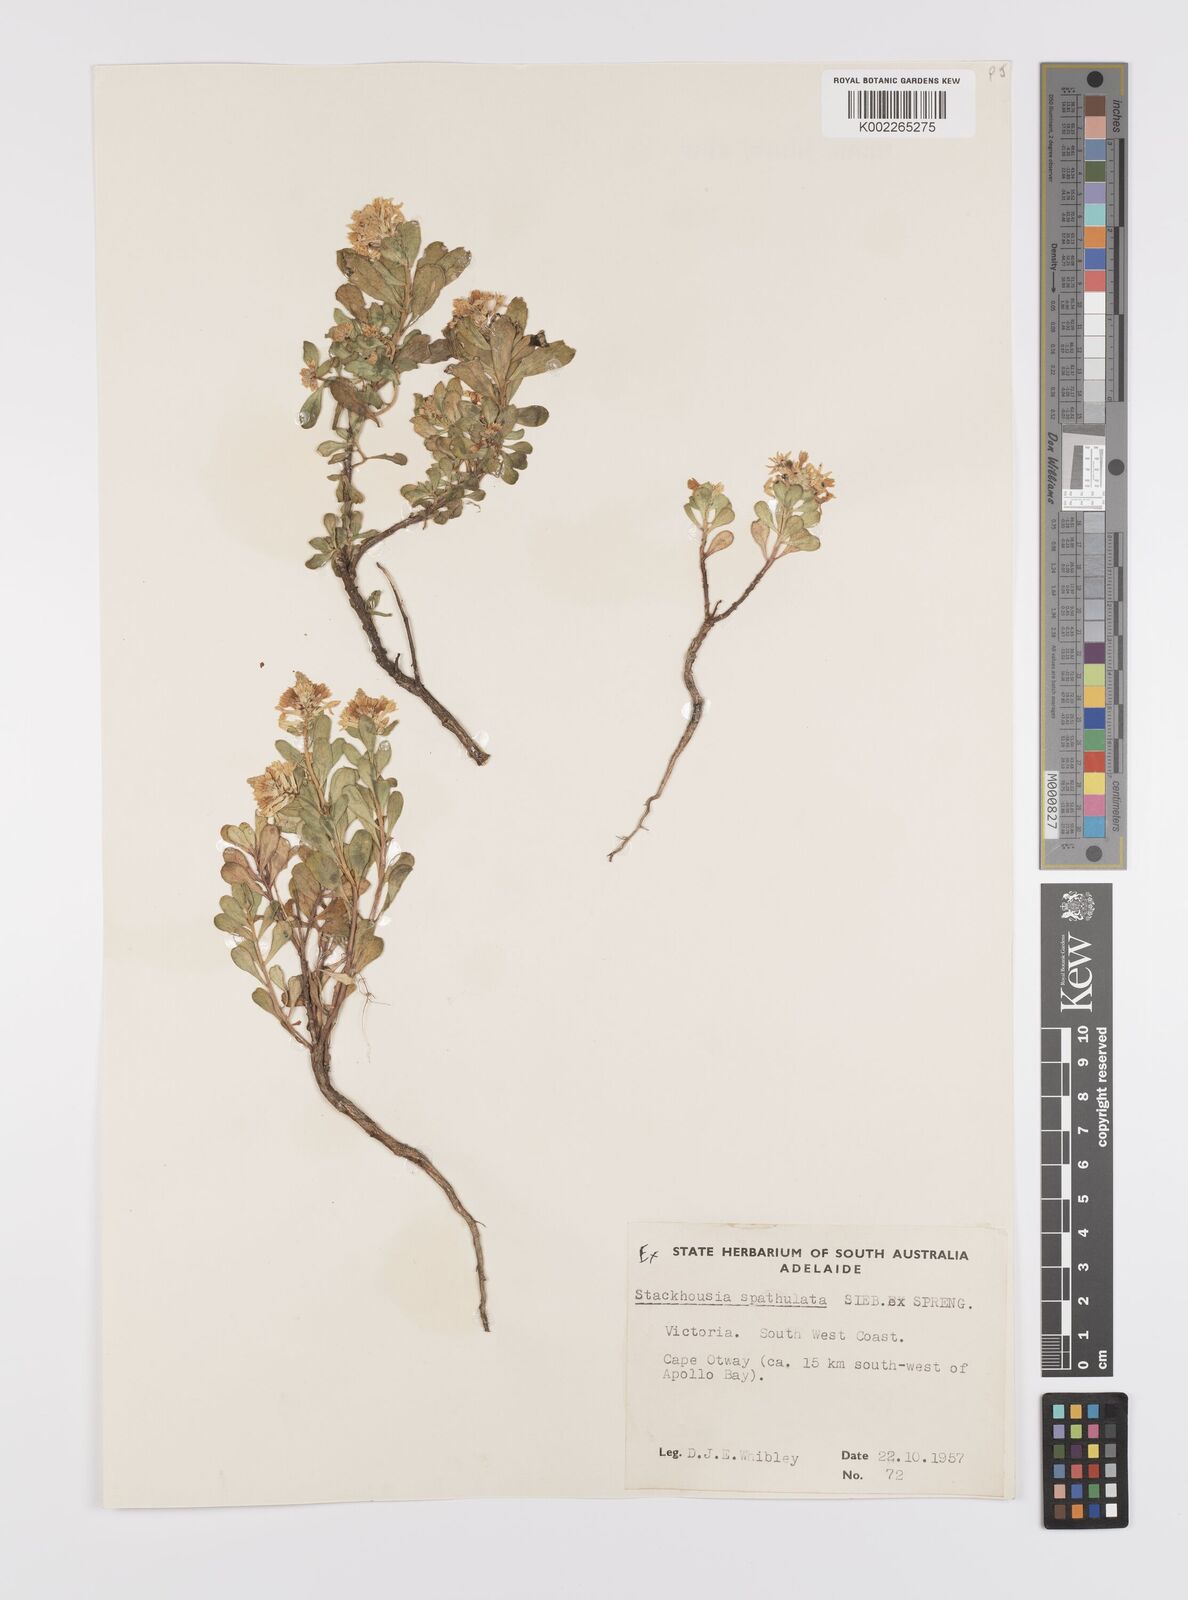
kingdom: Plantae
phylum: Tracheophyta
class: Magnoliopsida
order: Celastrales
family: Celastraceae
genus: Stackhousia
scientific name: Stackhousia spathulata
